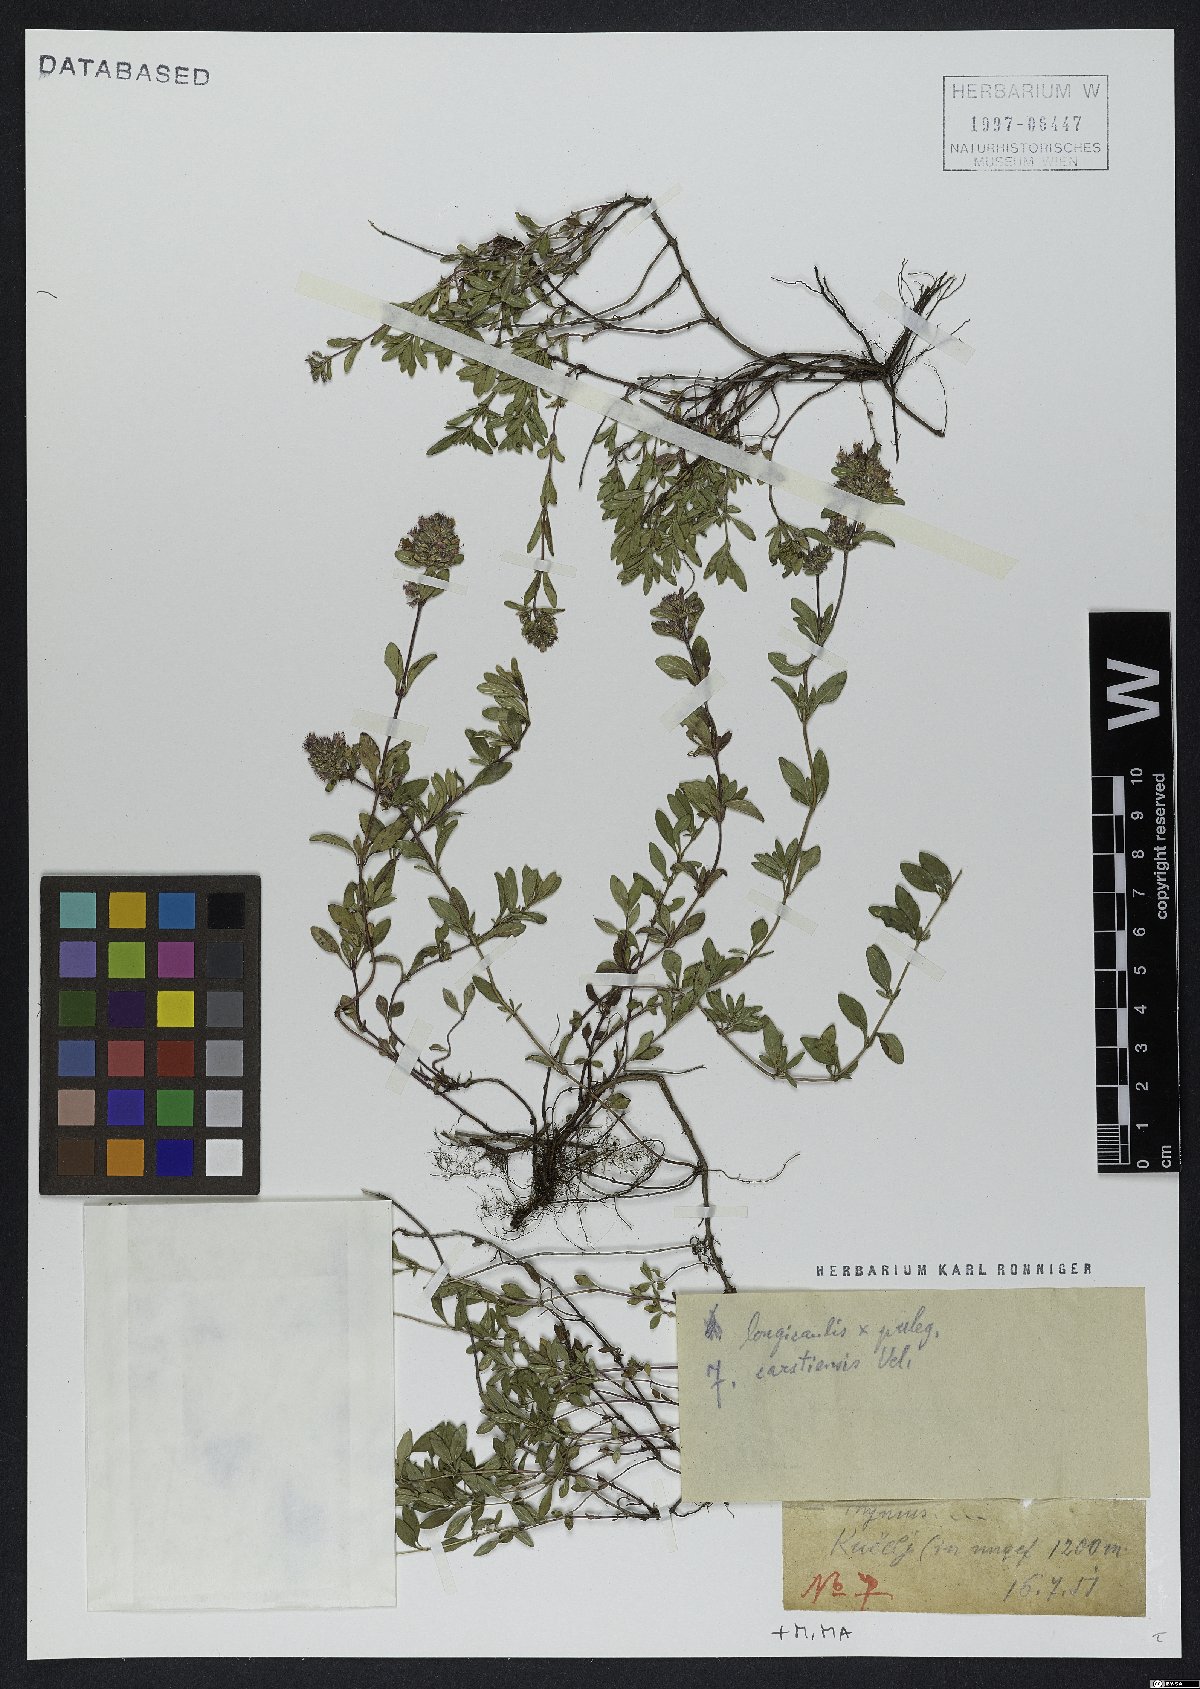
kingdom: Plantae
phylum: Tracheophyta
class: Magnoliopsida
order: Lamiales
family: Lamiaceae
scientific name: Lamiaceae
